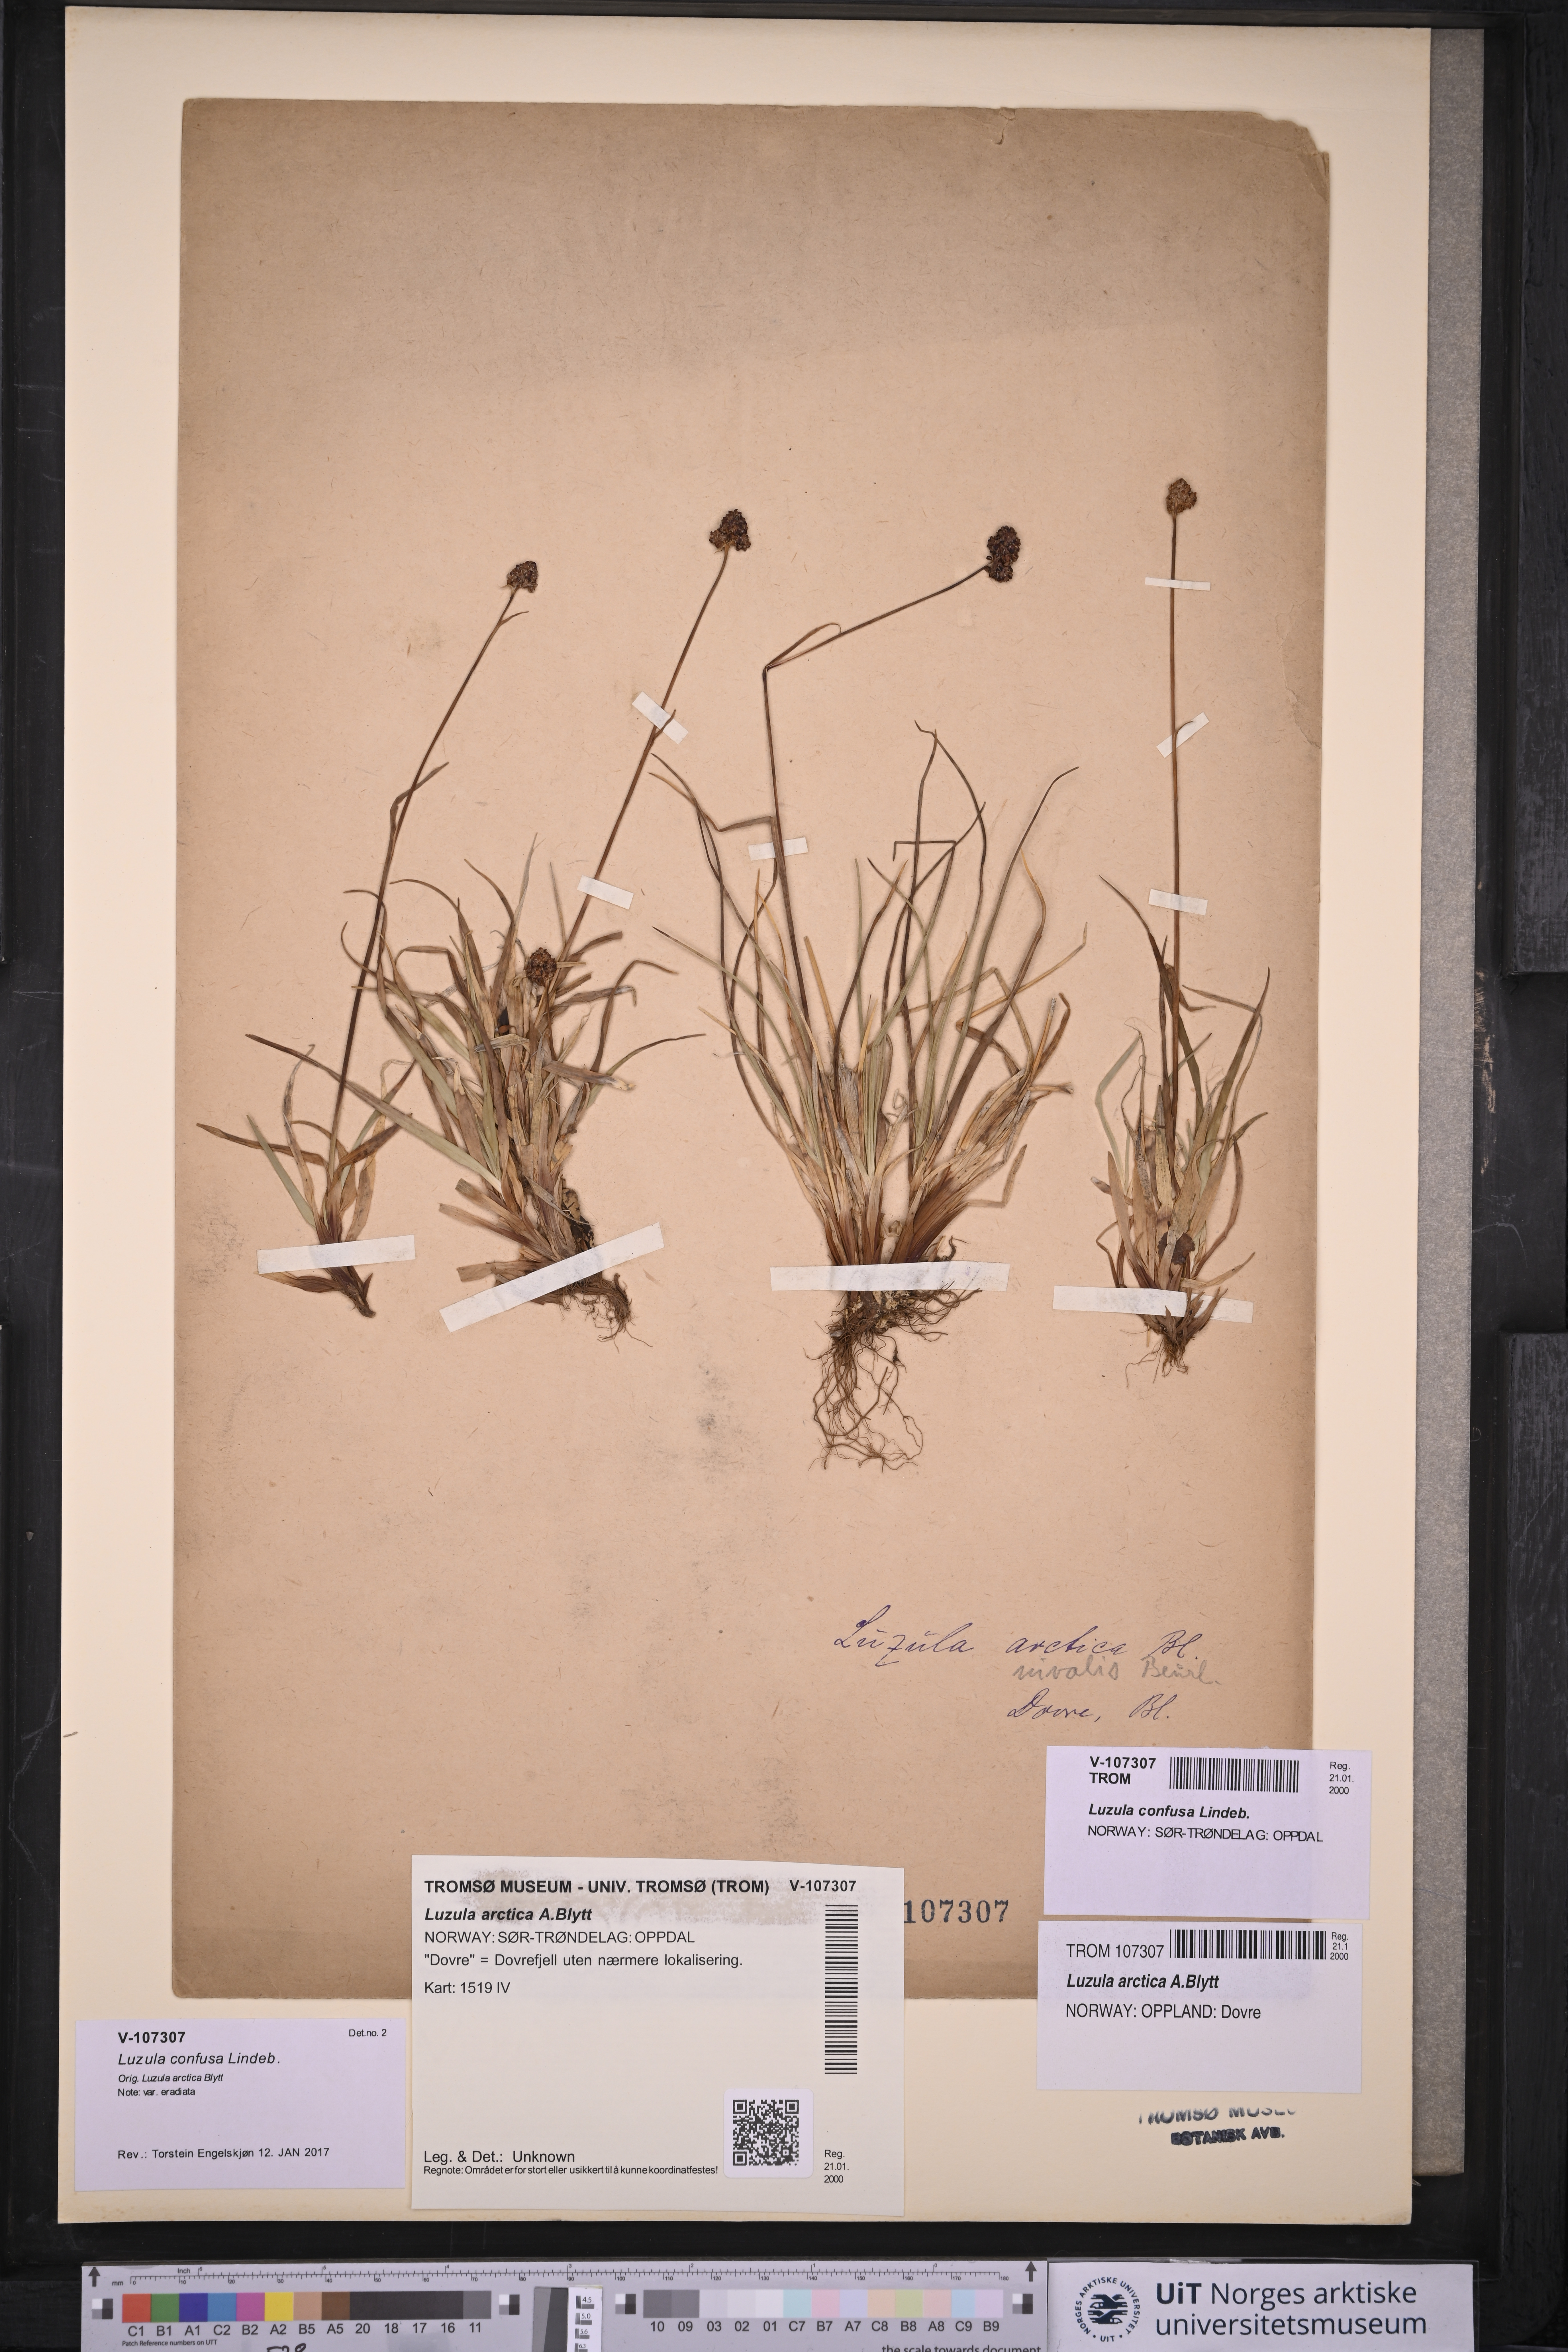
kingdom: Plantae
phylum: Tracheophyta
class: Liliopsida
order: Poales
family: Juncaceae
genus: Luzula
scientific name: Luzula confusa
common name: Northern wood rush
